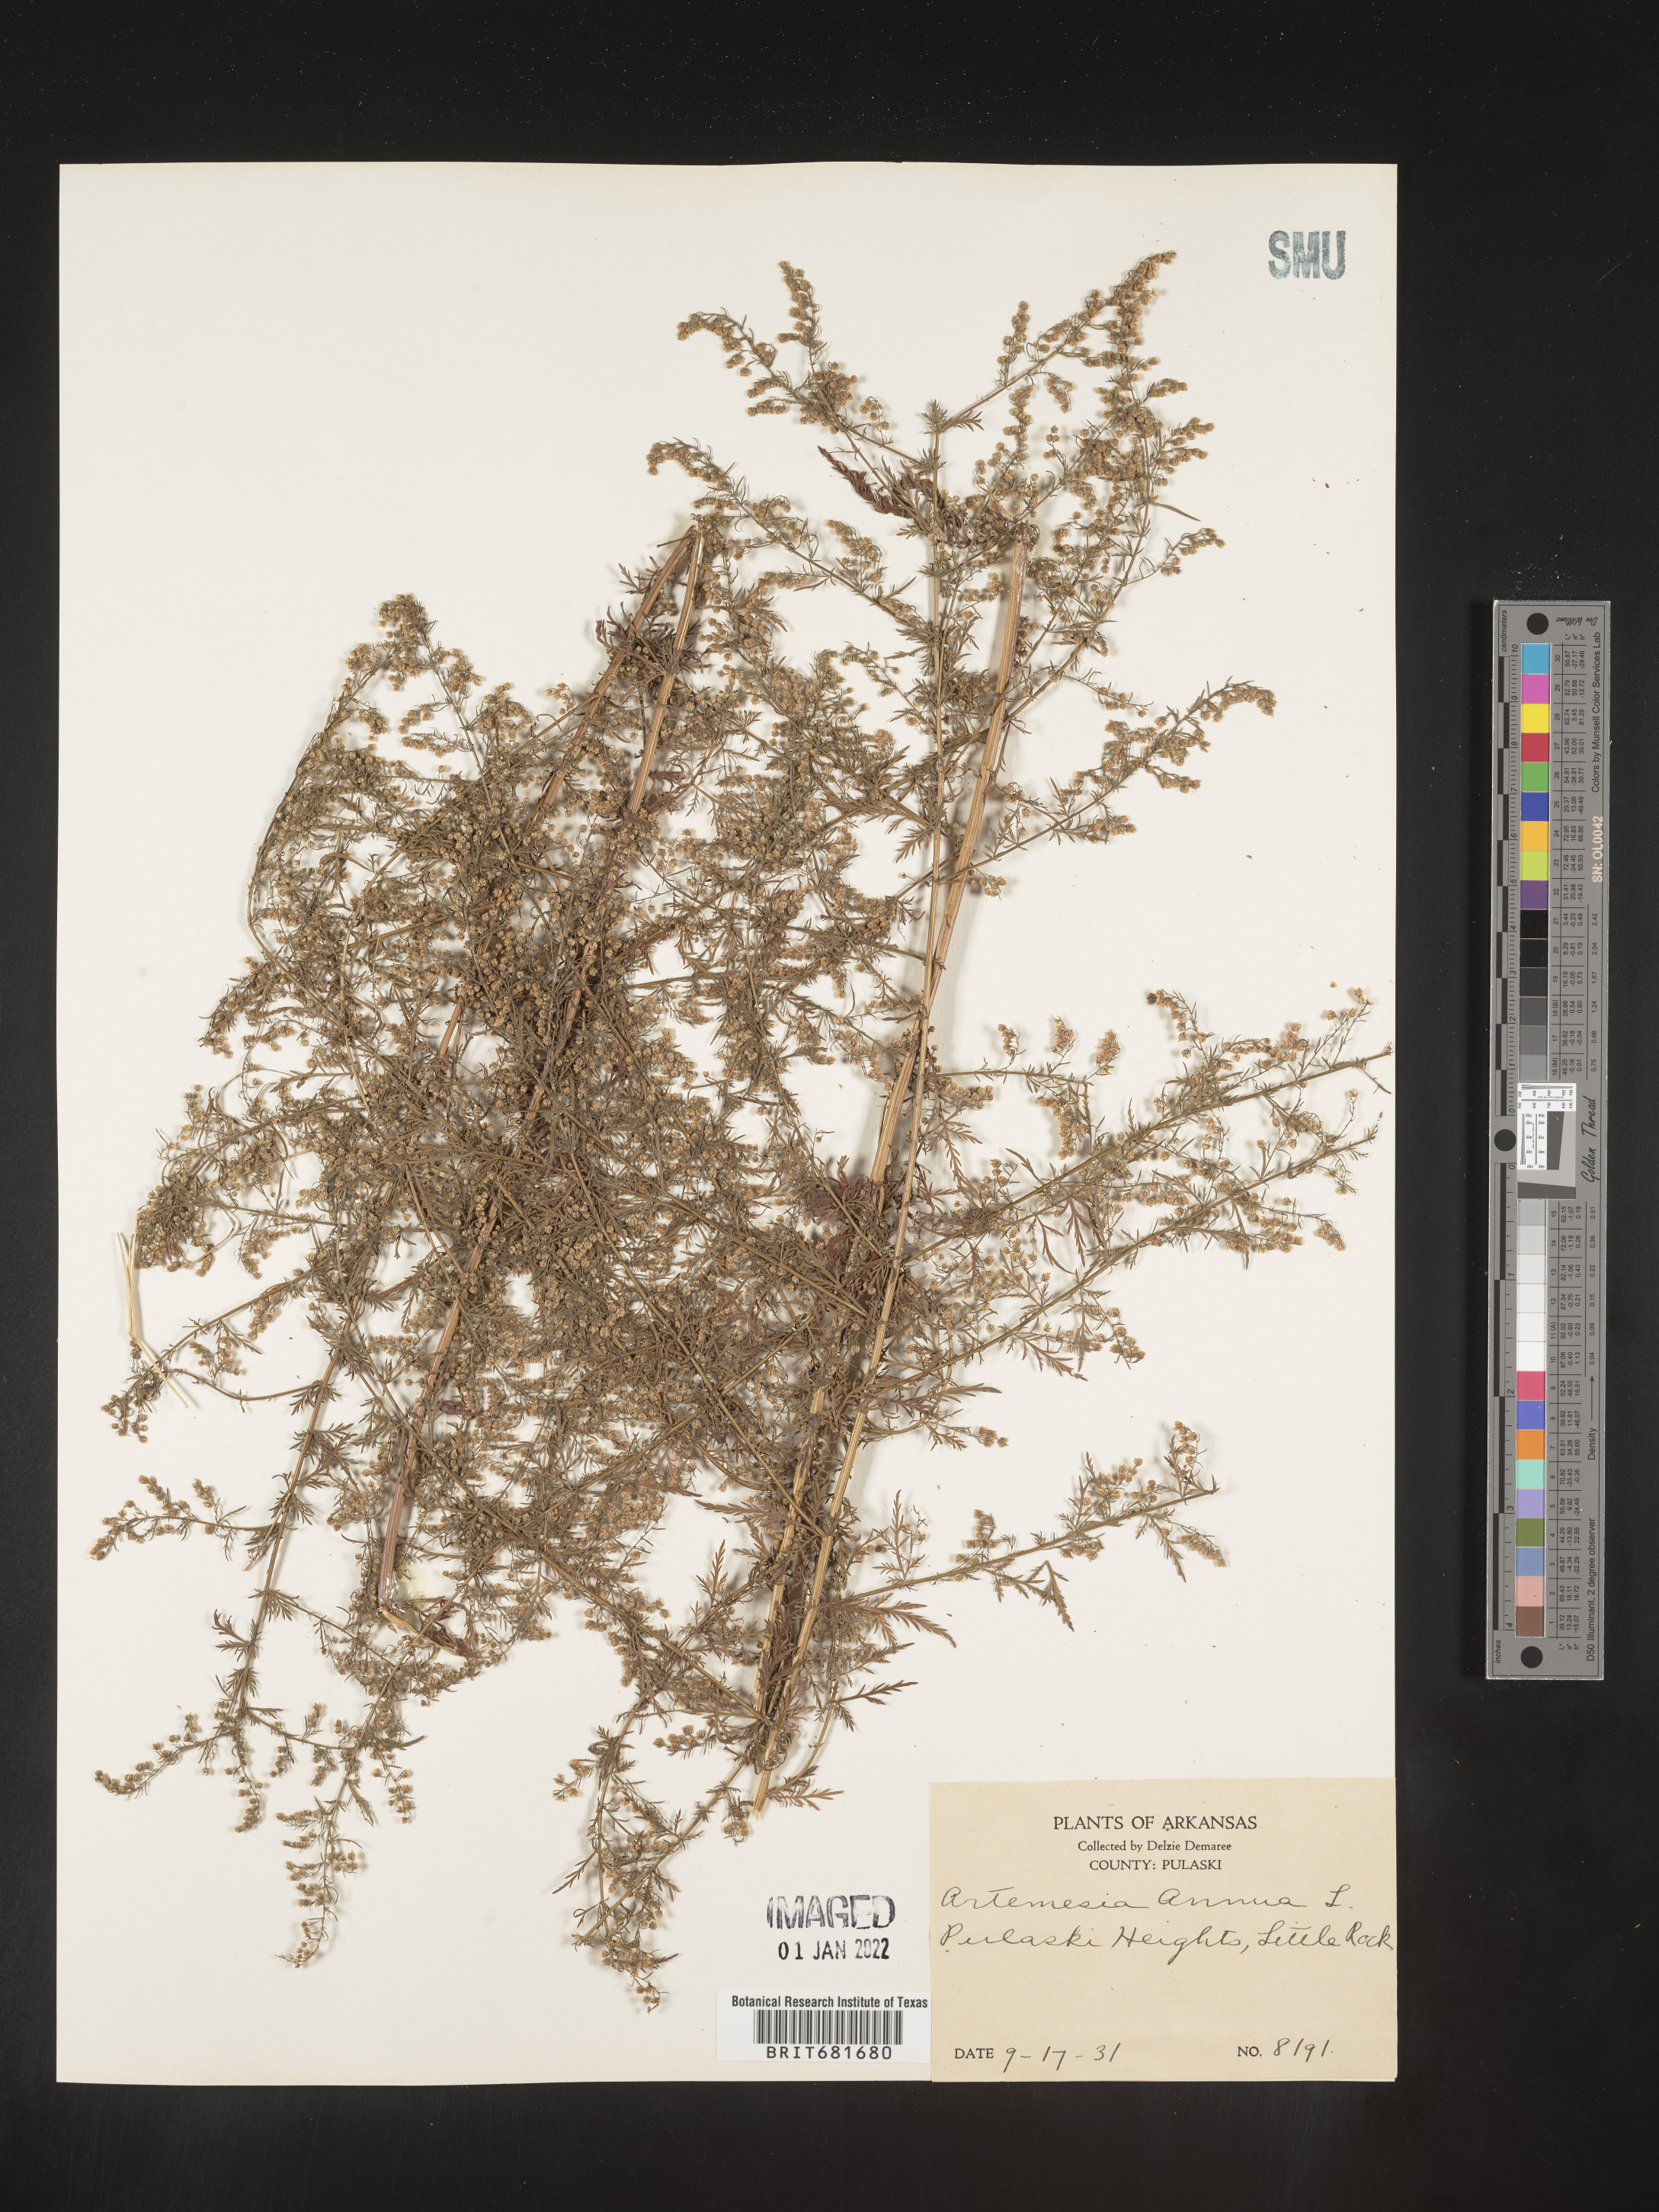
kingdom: Plantae
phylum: Tracheophyta
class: Magnoliopsida
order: Asterales
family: Asteraceae
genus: Artemisia
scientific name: Artemisia annua
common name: Sweet sagewort
